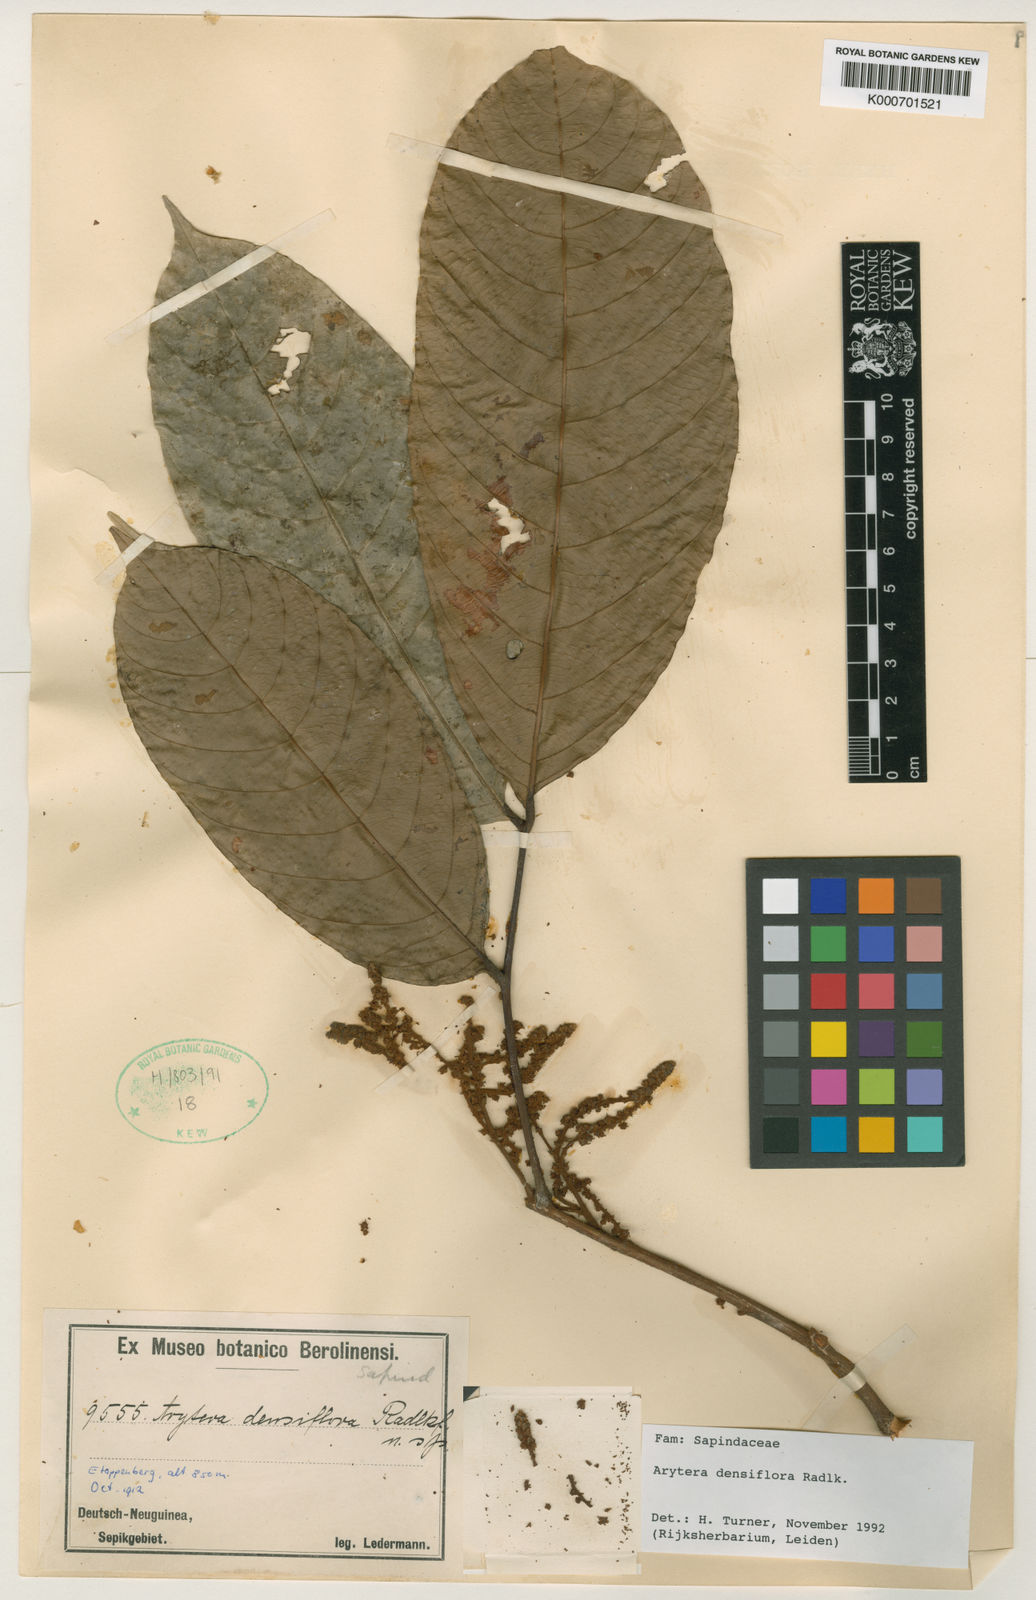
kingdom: Plantae
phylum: Tracheophyta
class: Magnoliopsida
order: Sapindales
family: Sapindaceae
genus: Arytera
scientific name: Arytera densiflora
